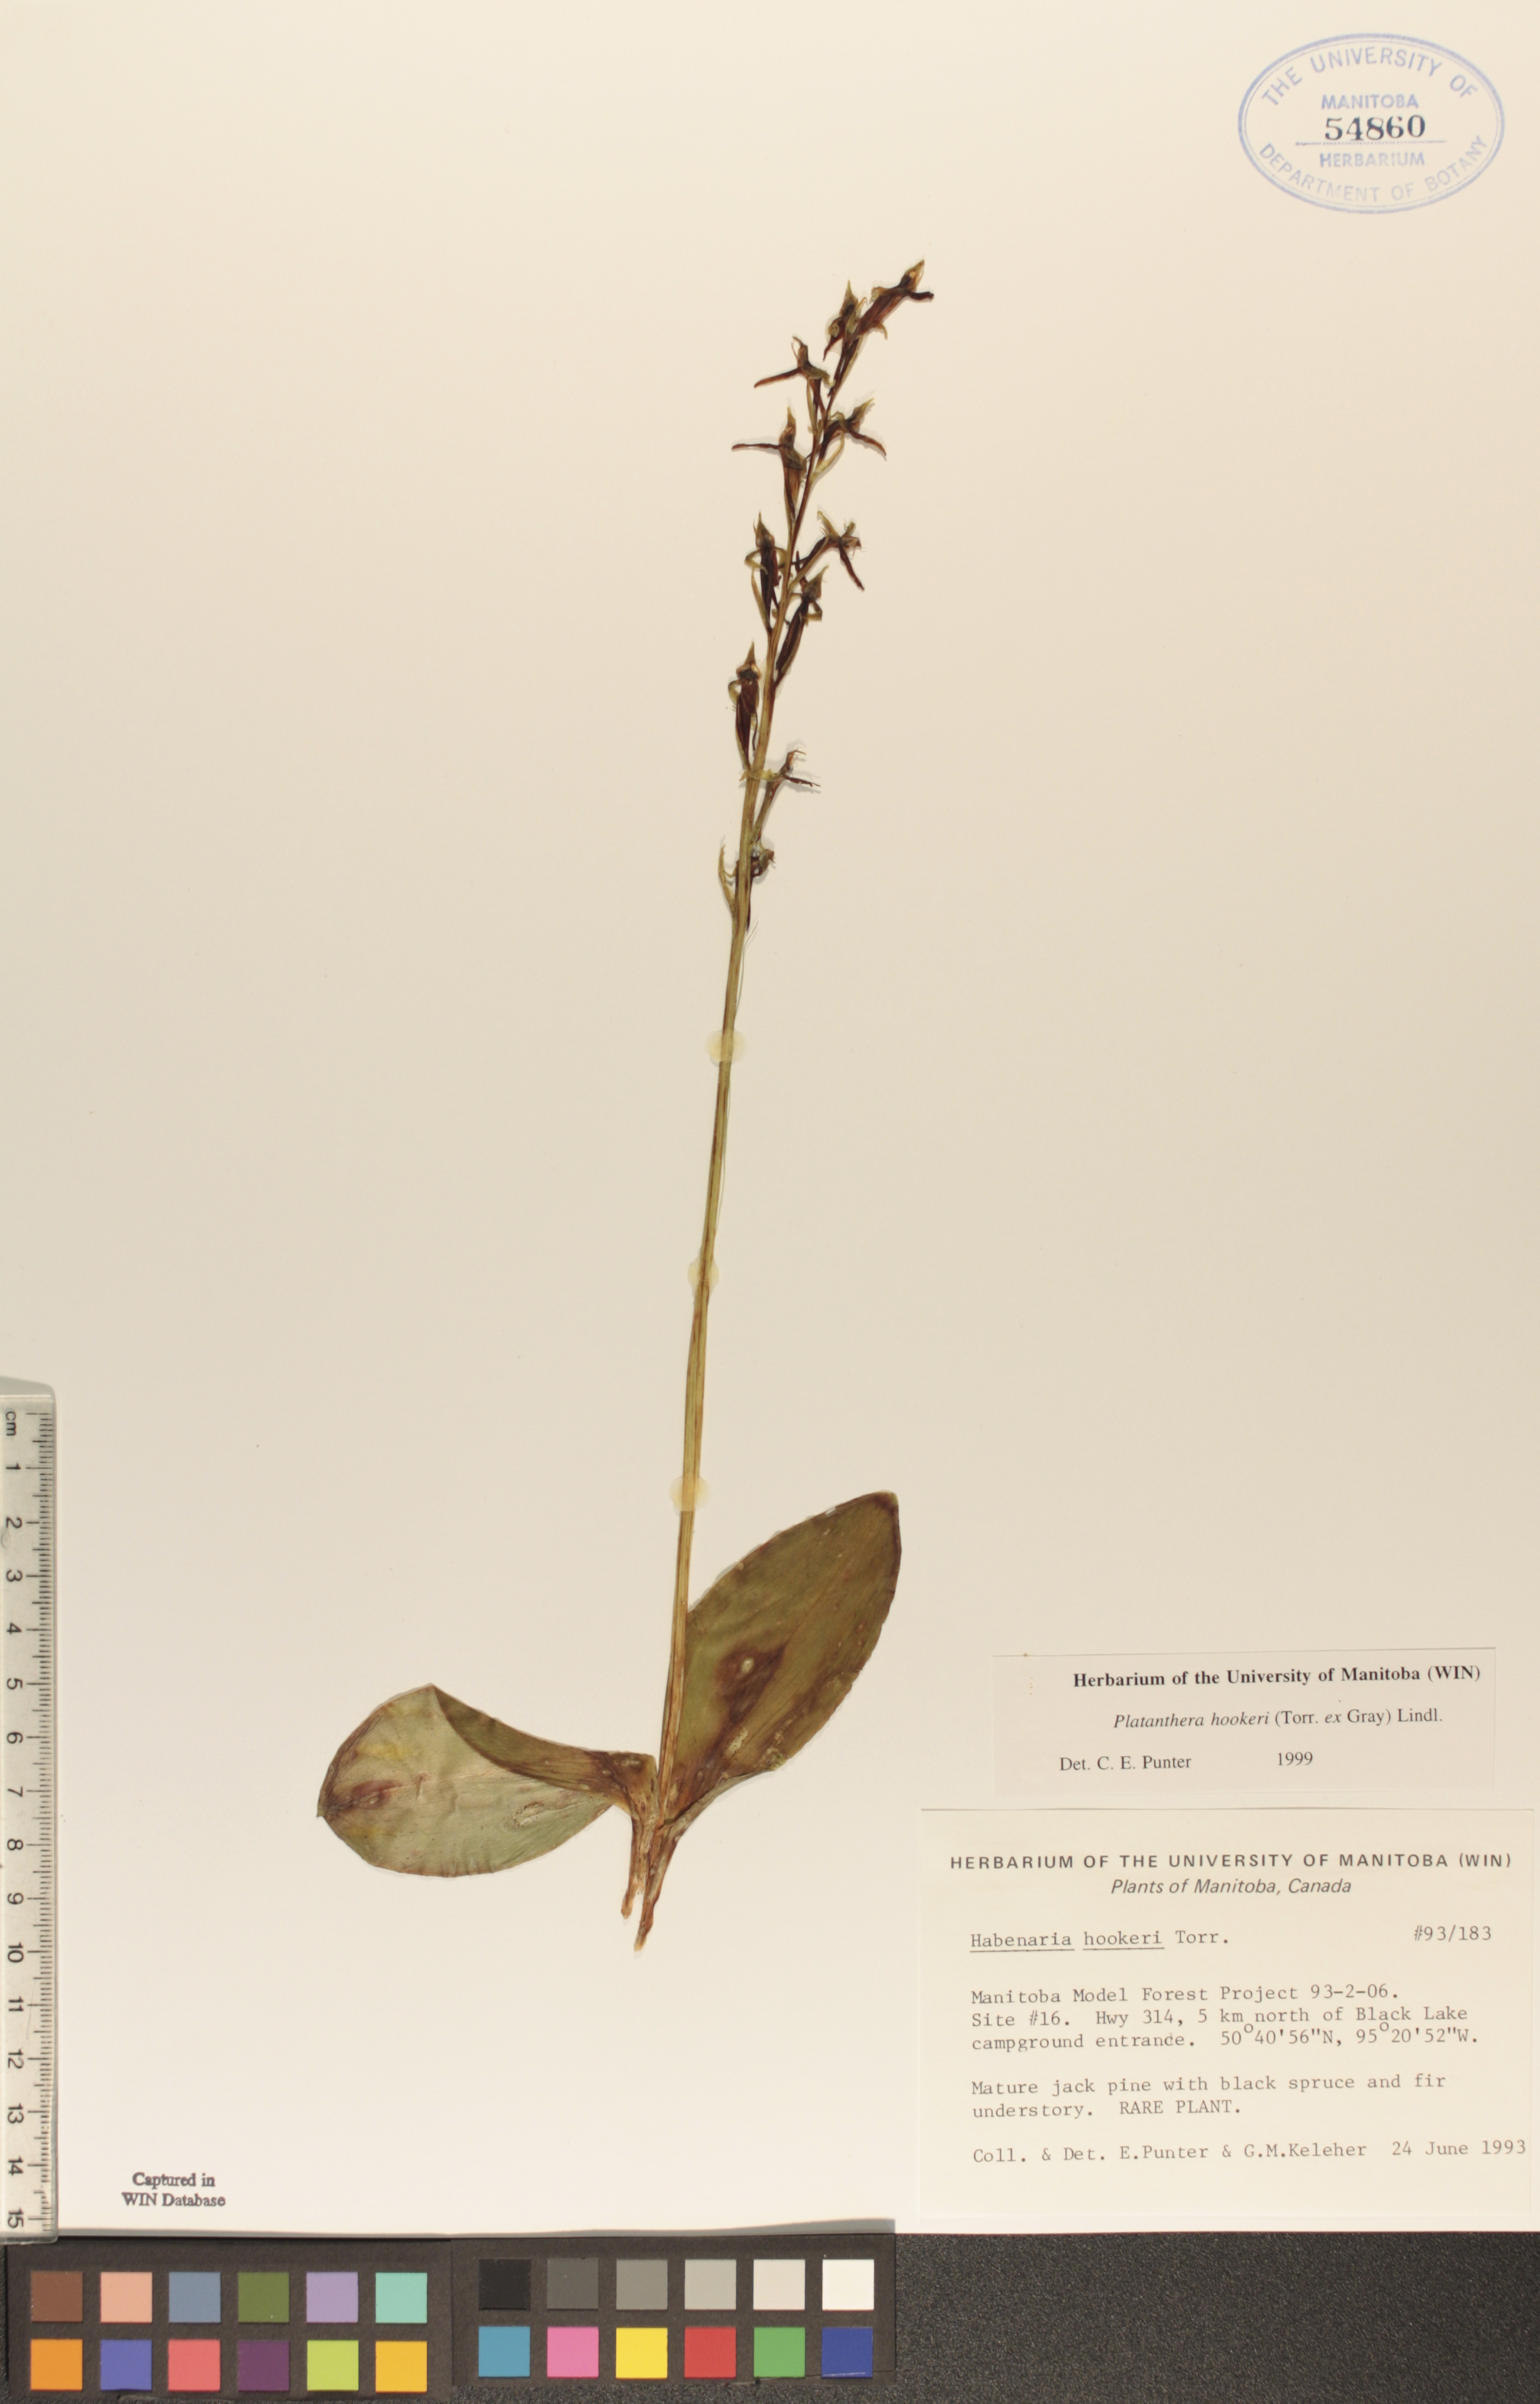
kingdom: Plantae
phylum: Tracheophyta
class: Liliopsida
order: Asparagales
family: Orchidaceae
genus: Platanthera
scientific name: Platanthera hookeri
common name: Hooker's orchid
